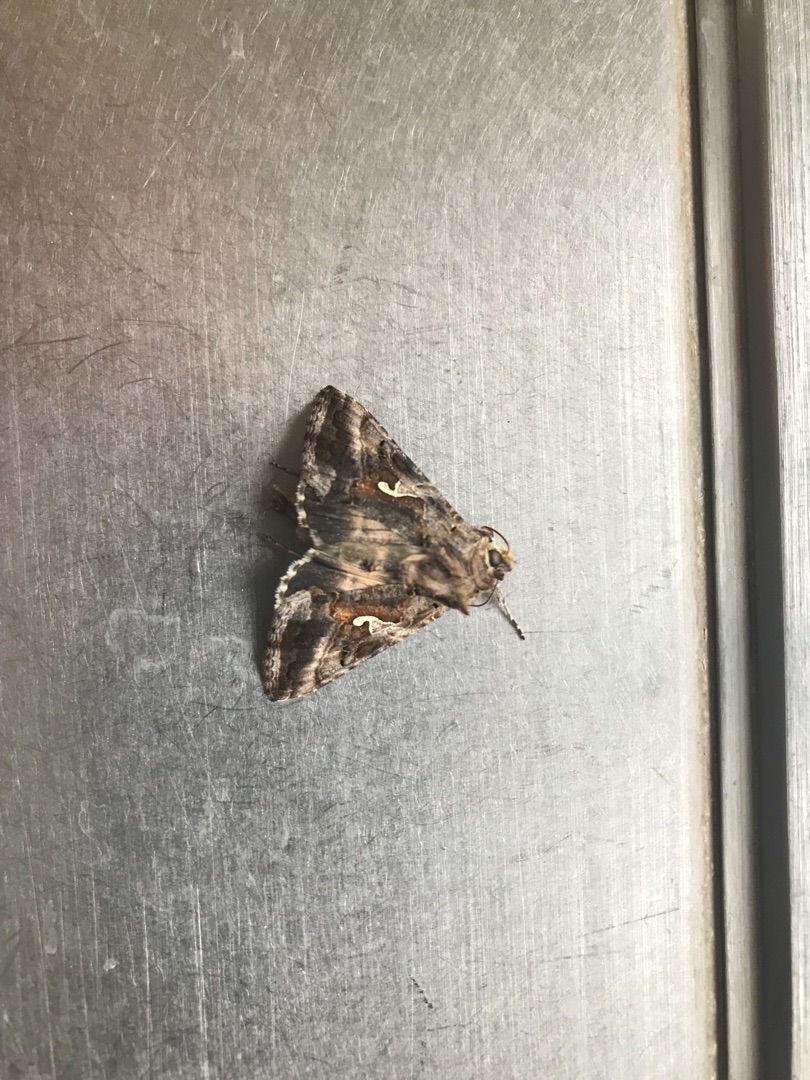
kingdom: Animalia
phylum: Arthropoda
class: Insecta
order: Lepidoptera
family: Noctuidae
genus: Autographa
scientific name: Autographa gamma
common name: Gammaugle
